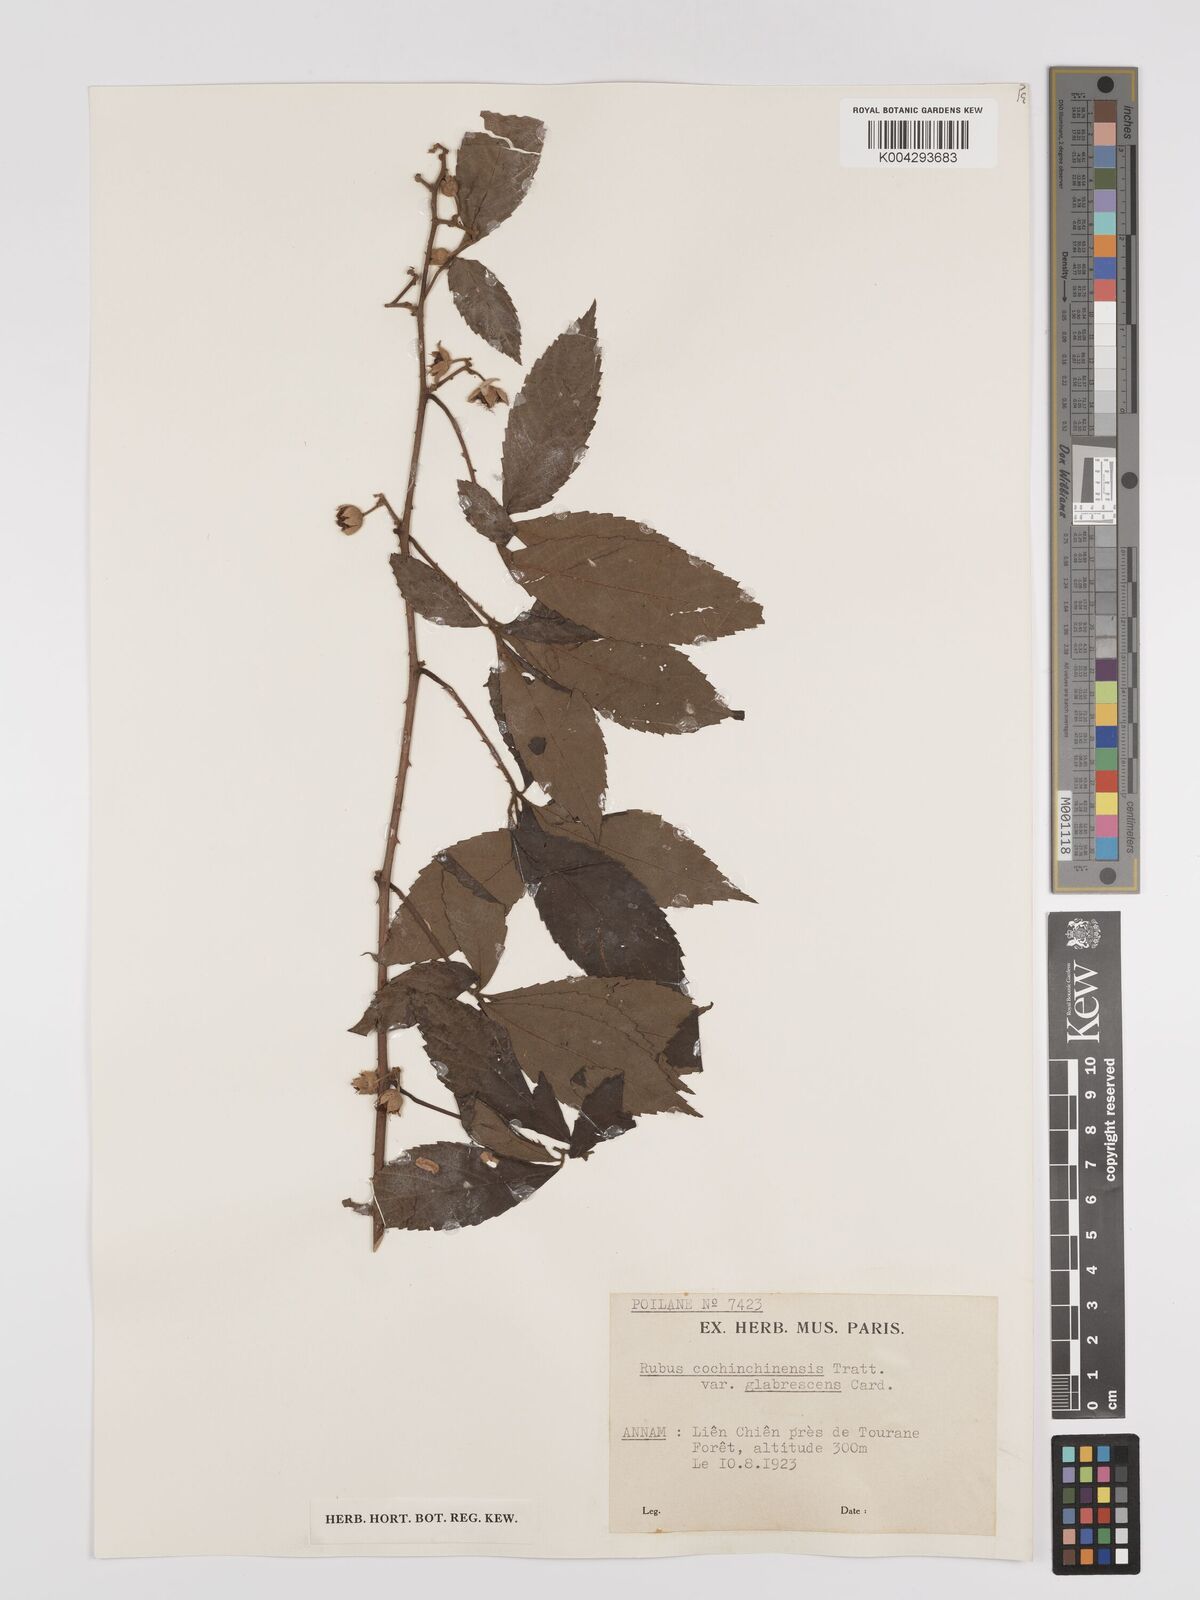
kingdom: Plantae
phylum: Tracheophyta
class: Magnoliopsida
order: Rosales
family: Rosaceae
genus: Rubus
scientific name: Rubus cochinchinensis
